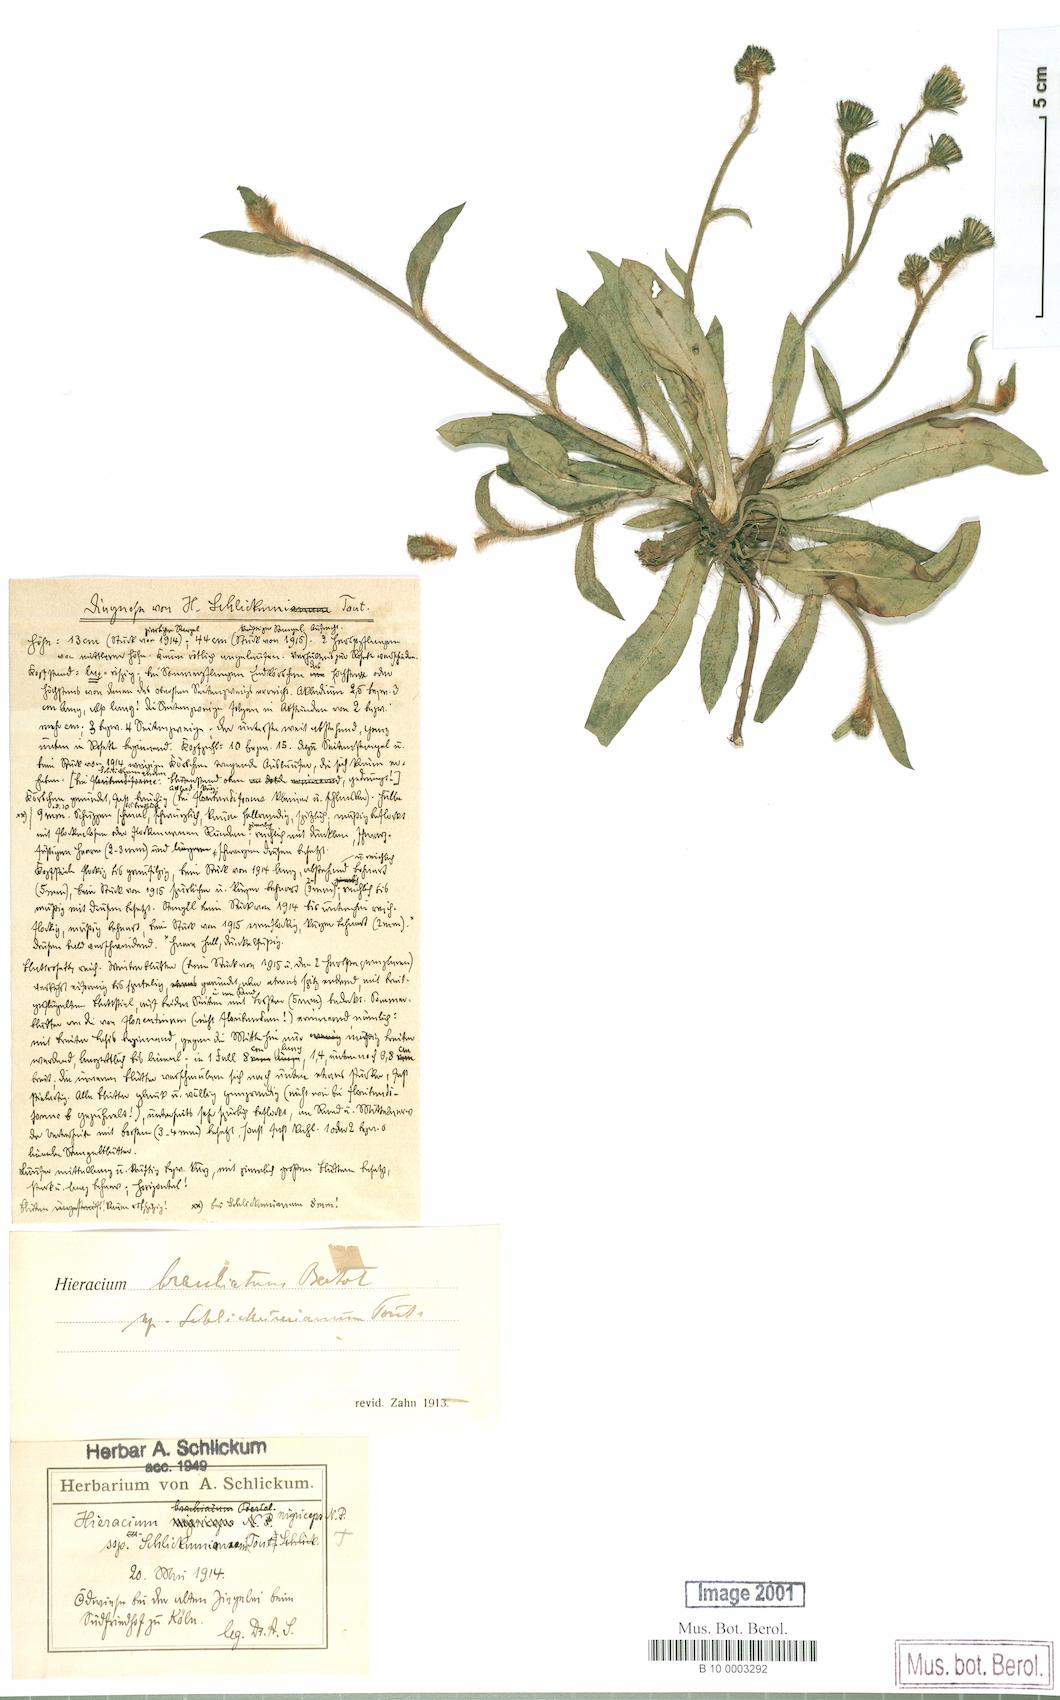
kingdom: Plantae
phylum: Tracheophyta
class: Magnoliopsida
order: Asterales
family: Asteraceae
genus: Pilosella
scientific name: Pilosella iserana
